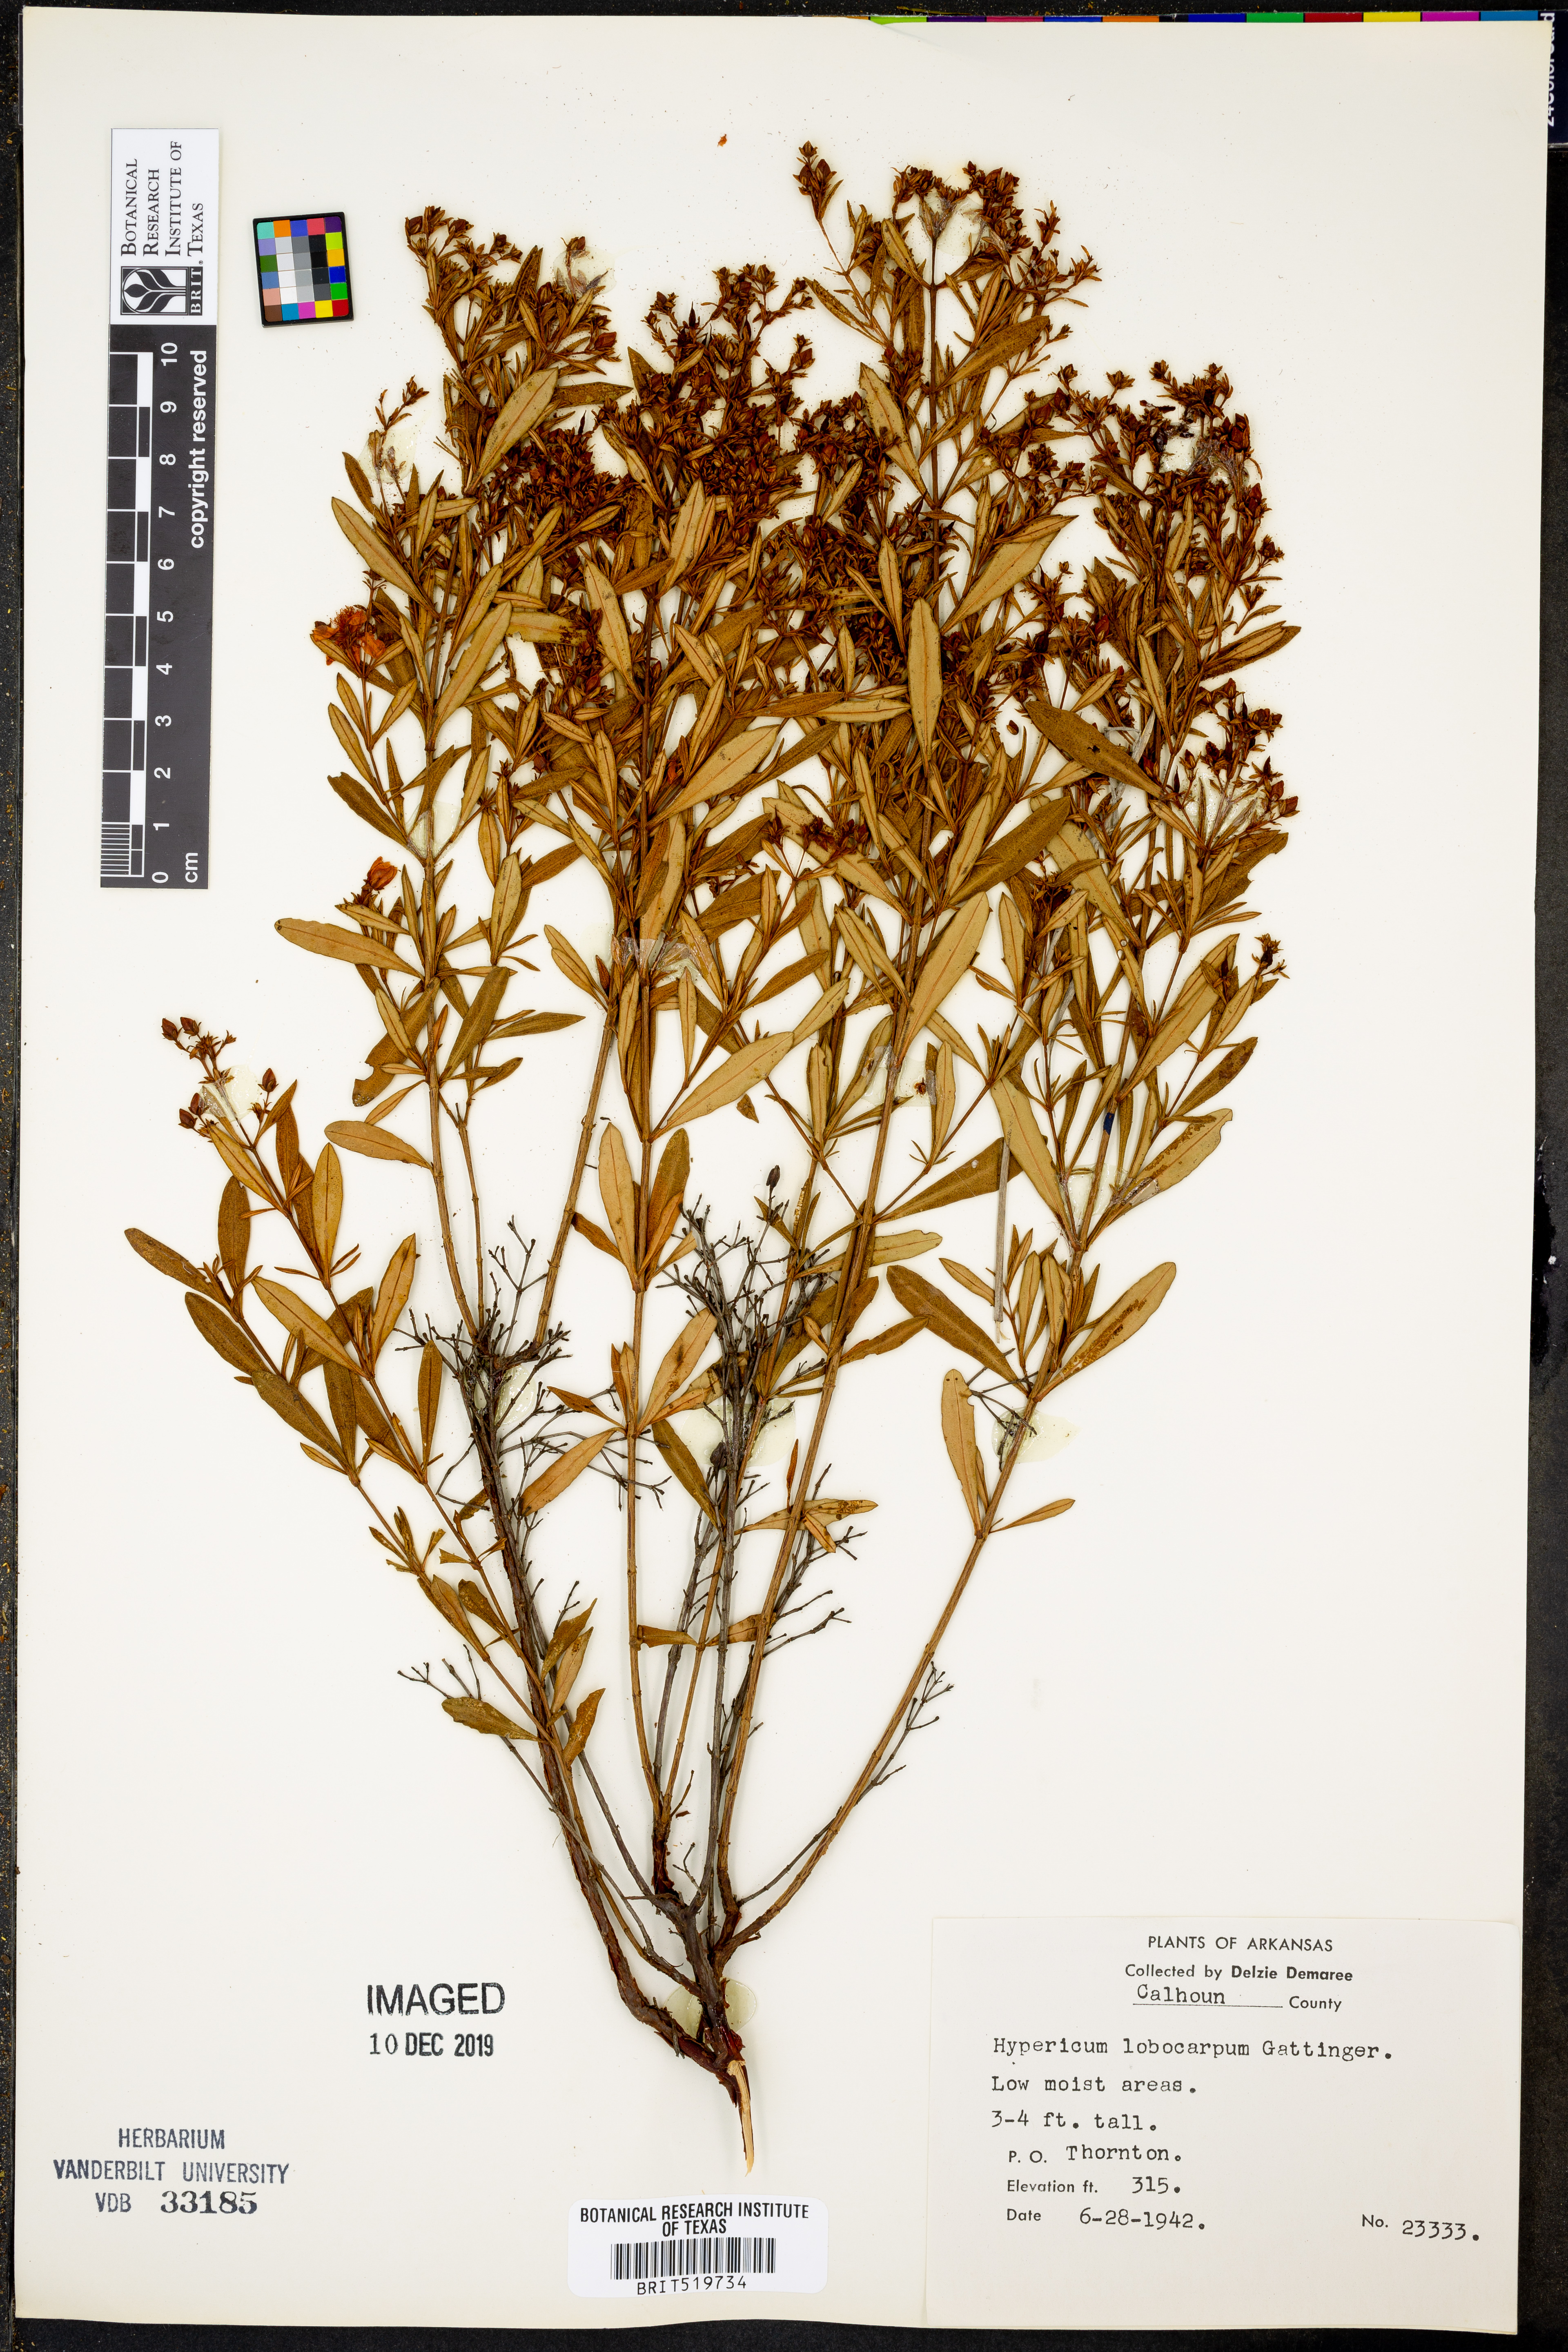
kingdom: Plantae
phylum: Tracheophyta
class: Magnoliopsida
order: Malpighiales
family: Hypericaceae
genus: Hypericum
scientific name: Hypericum lobocarpum
